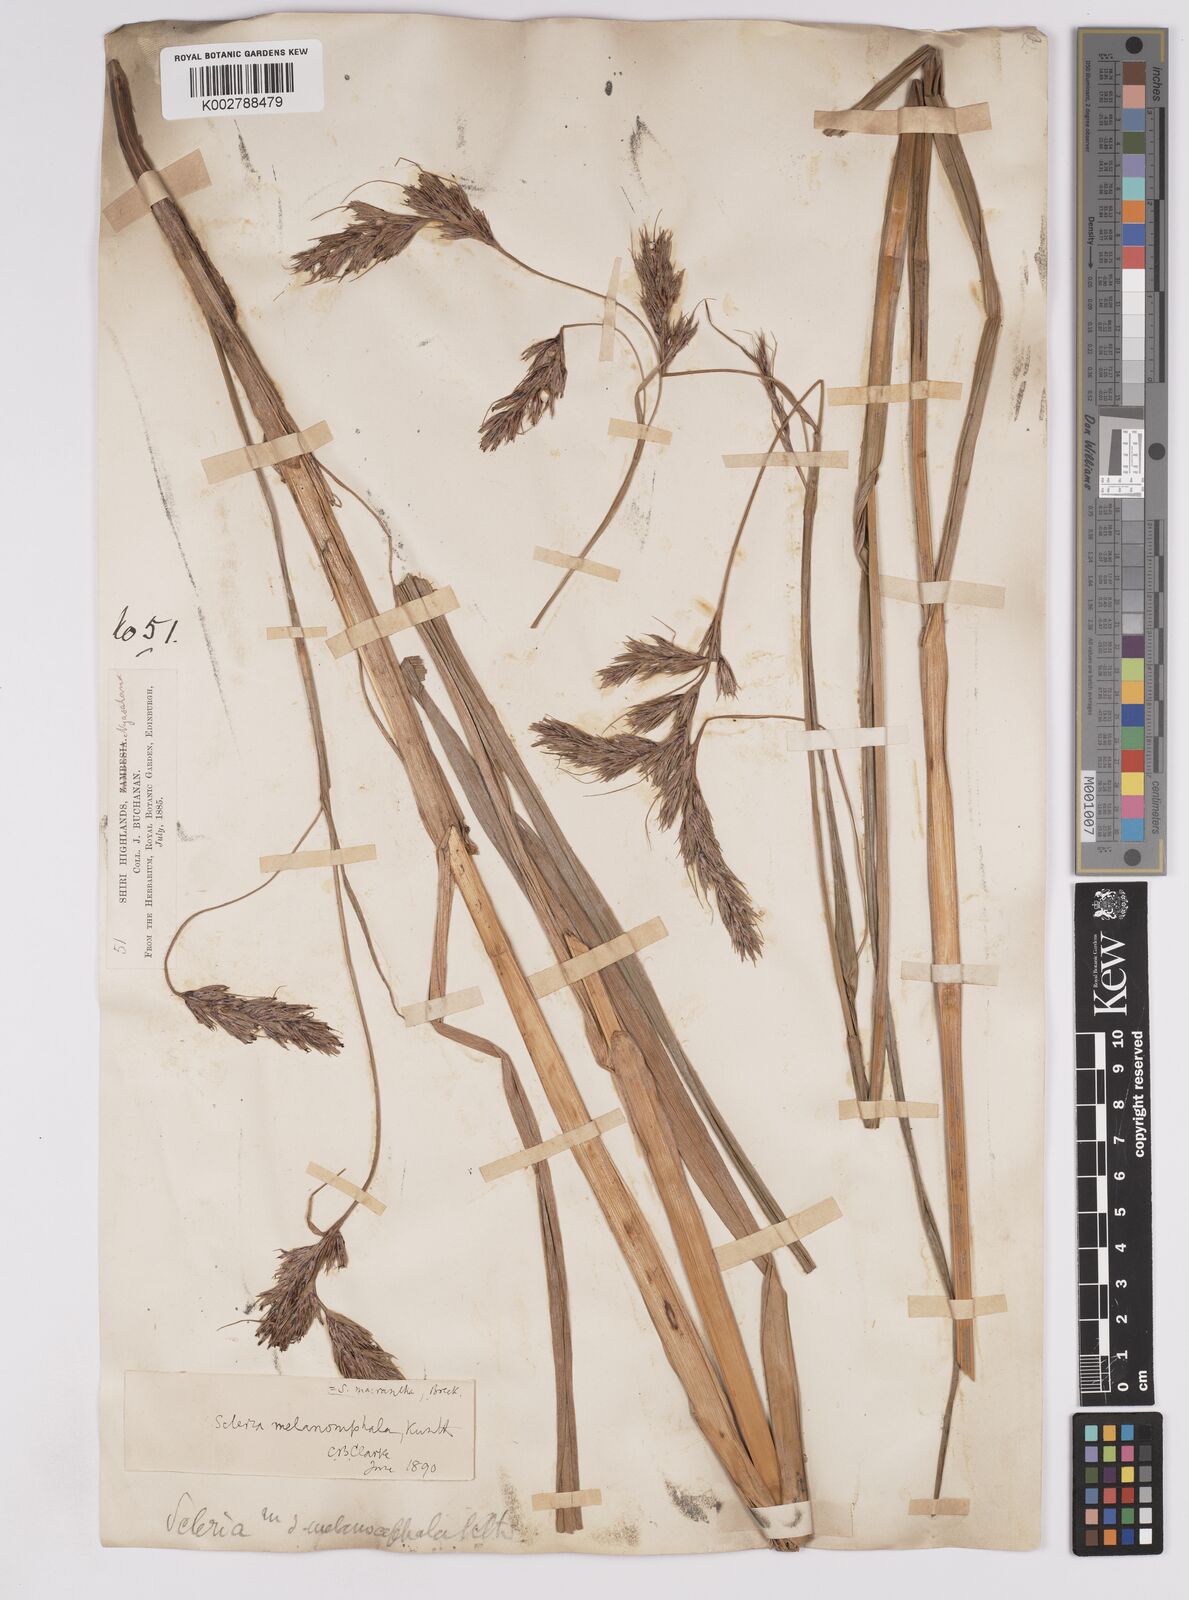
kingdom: Plantae
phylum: Tracheophyta
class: Liliopsida
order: Poales
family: Cyperaceae
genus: Scleria
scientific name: Scleria melanomphala
